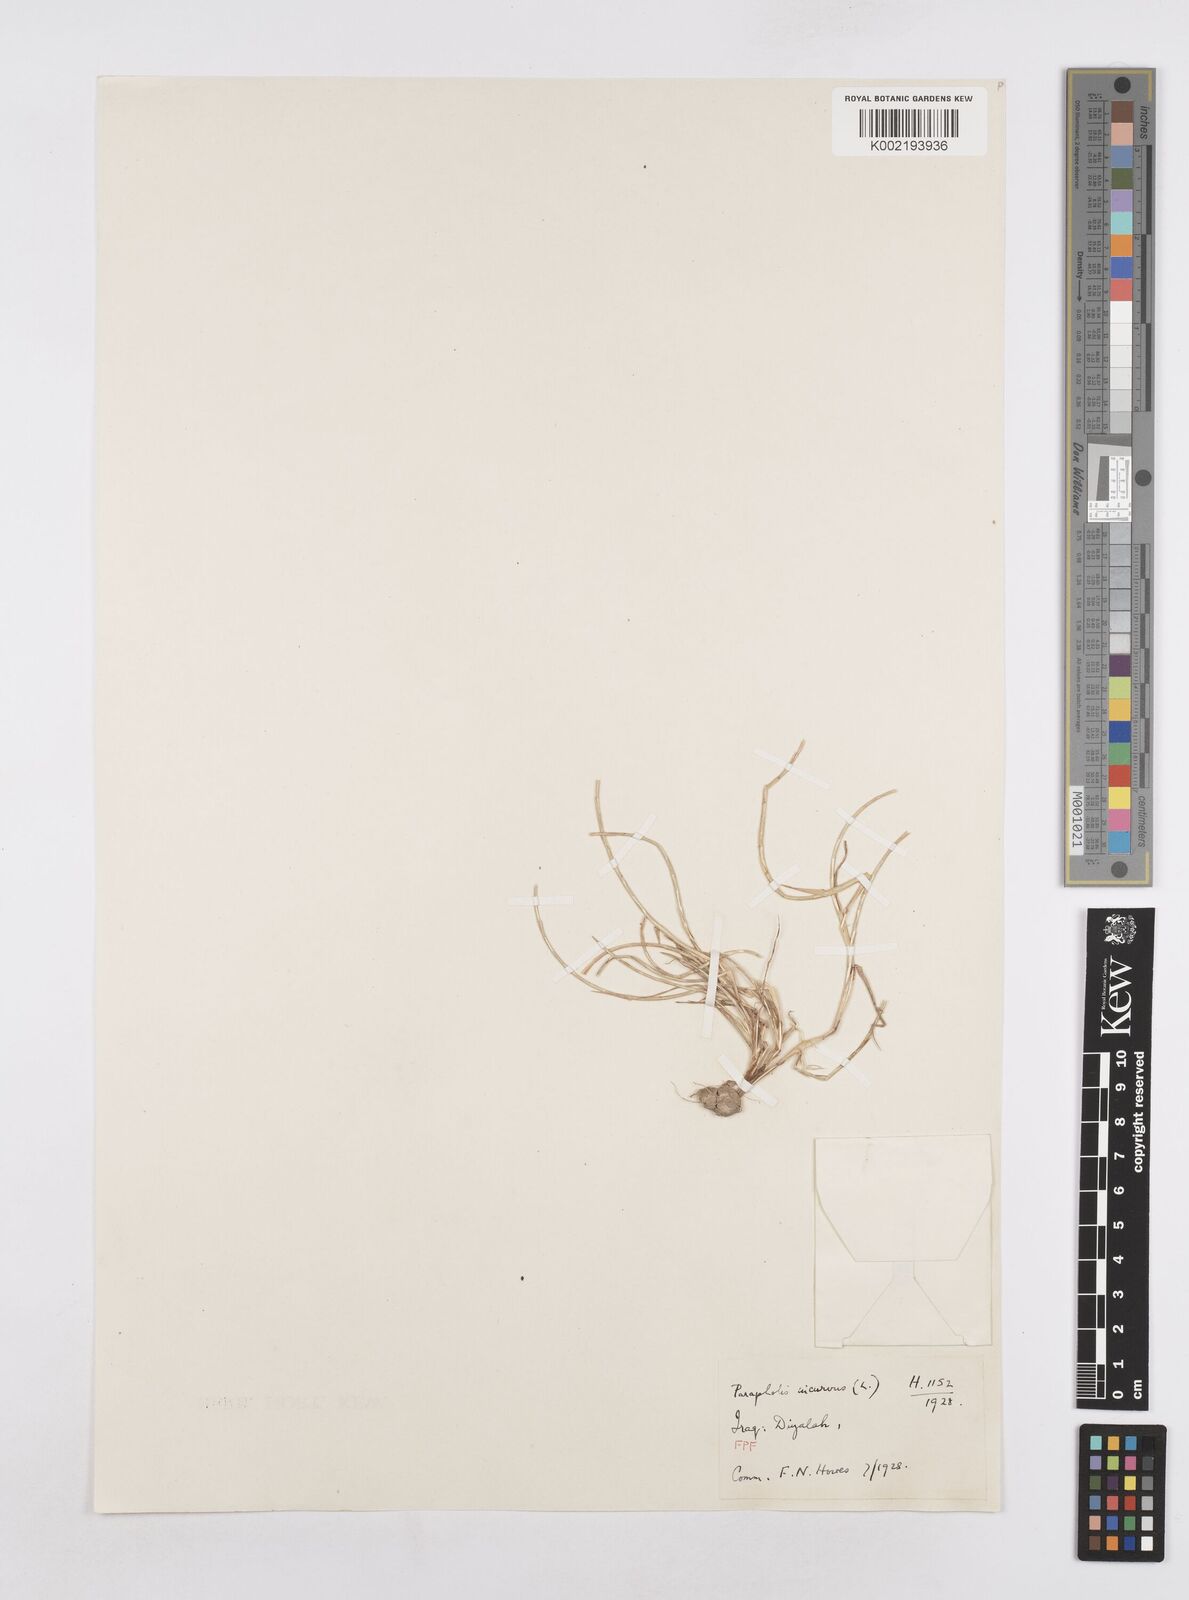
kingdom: Plantae
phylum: Tracheophyta
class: Liliopsida
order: Poales
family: Poaceae
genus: Parapholis
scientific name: Parapholis incurva
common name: Curved sicklegrass
